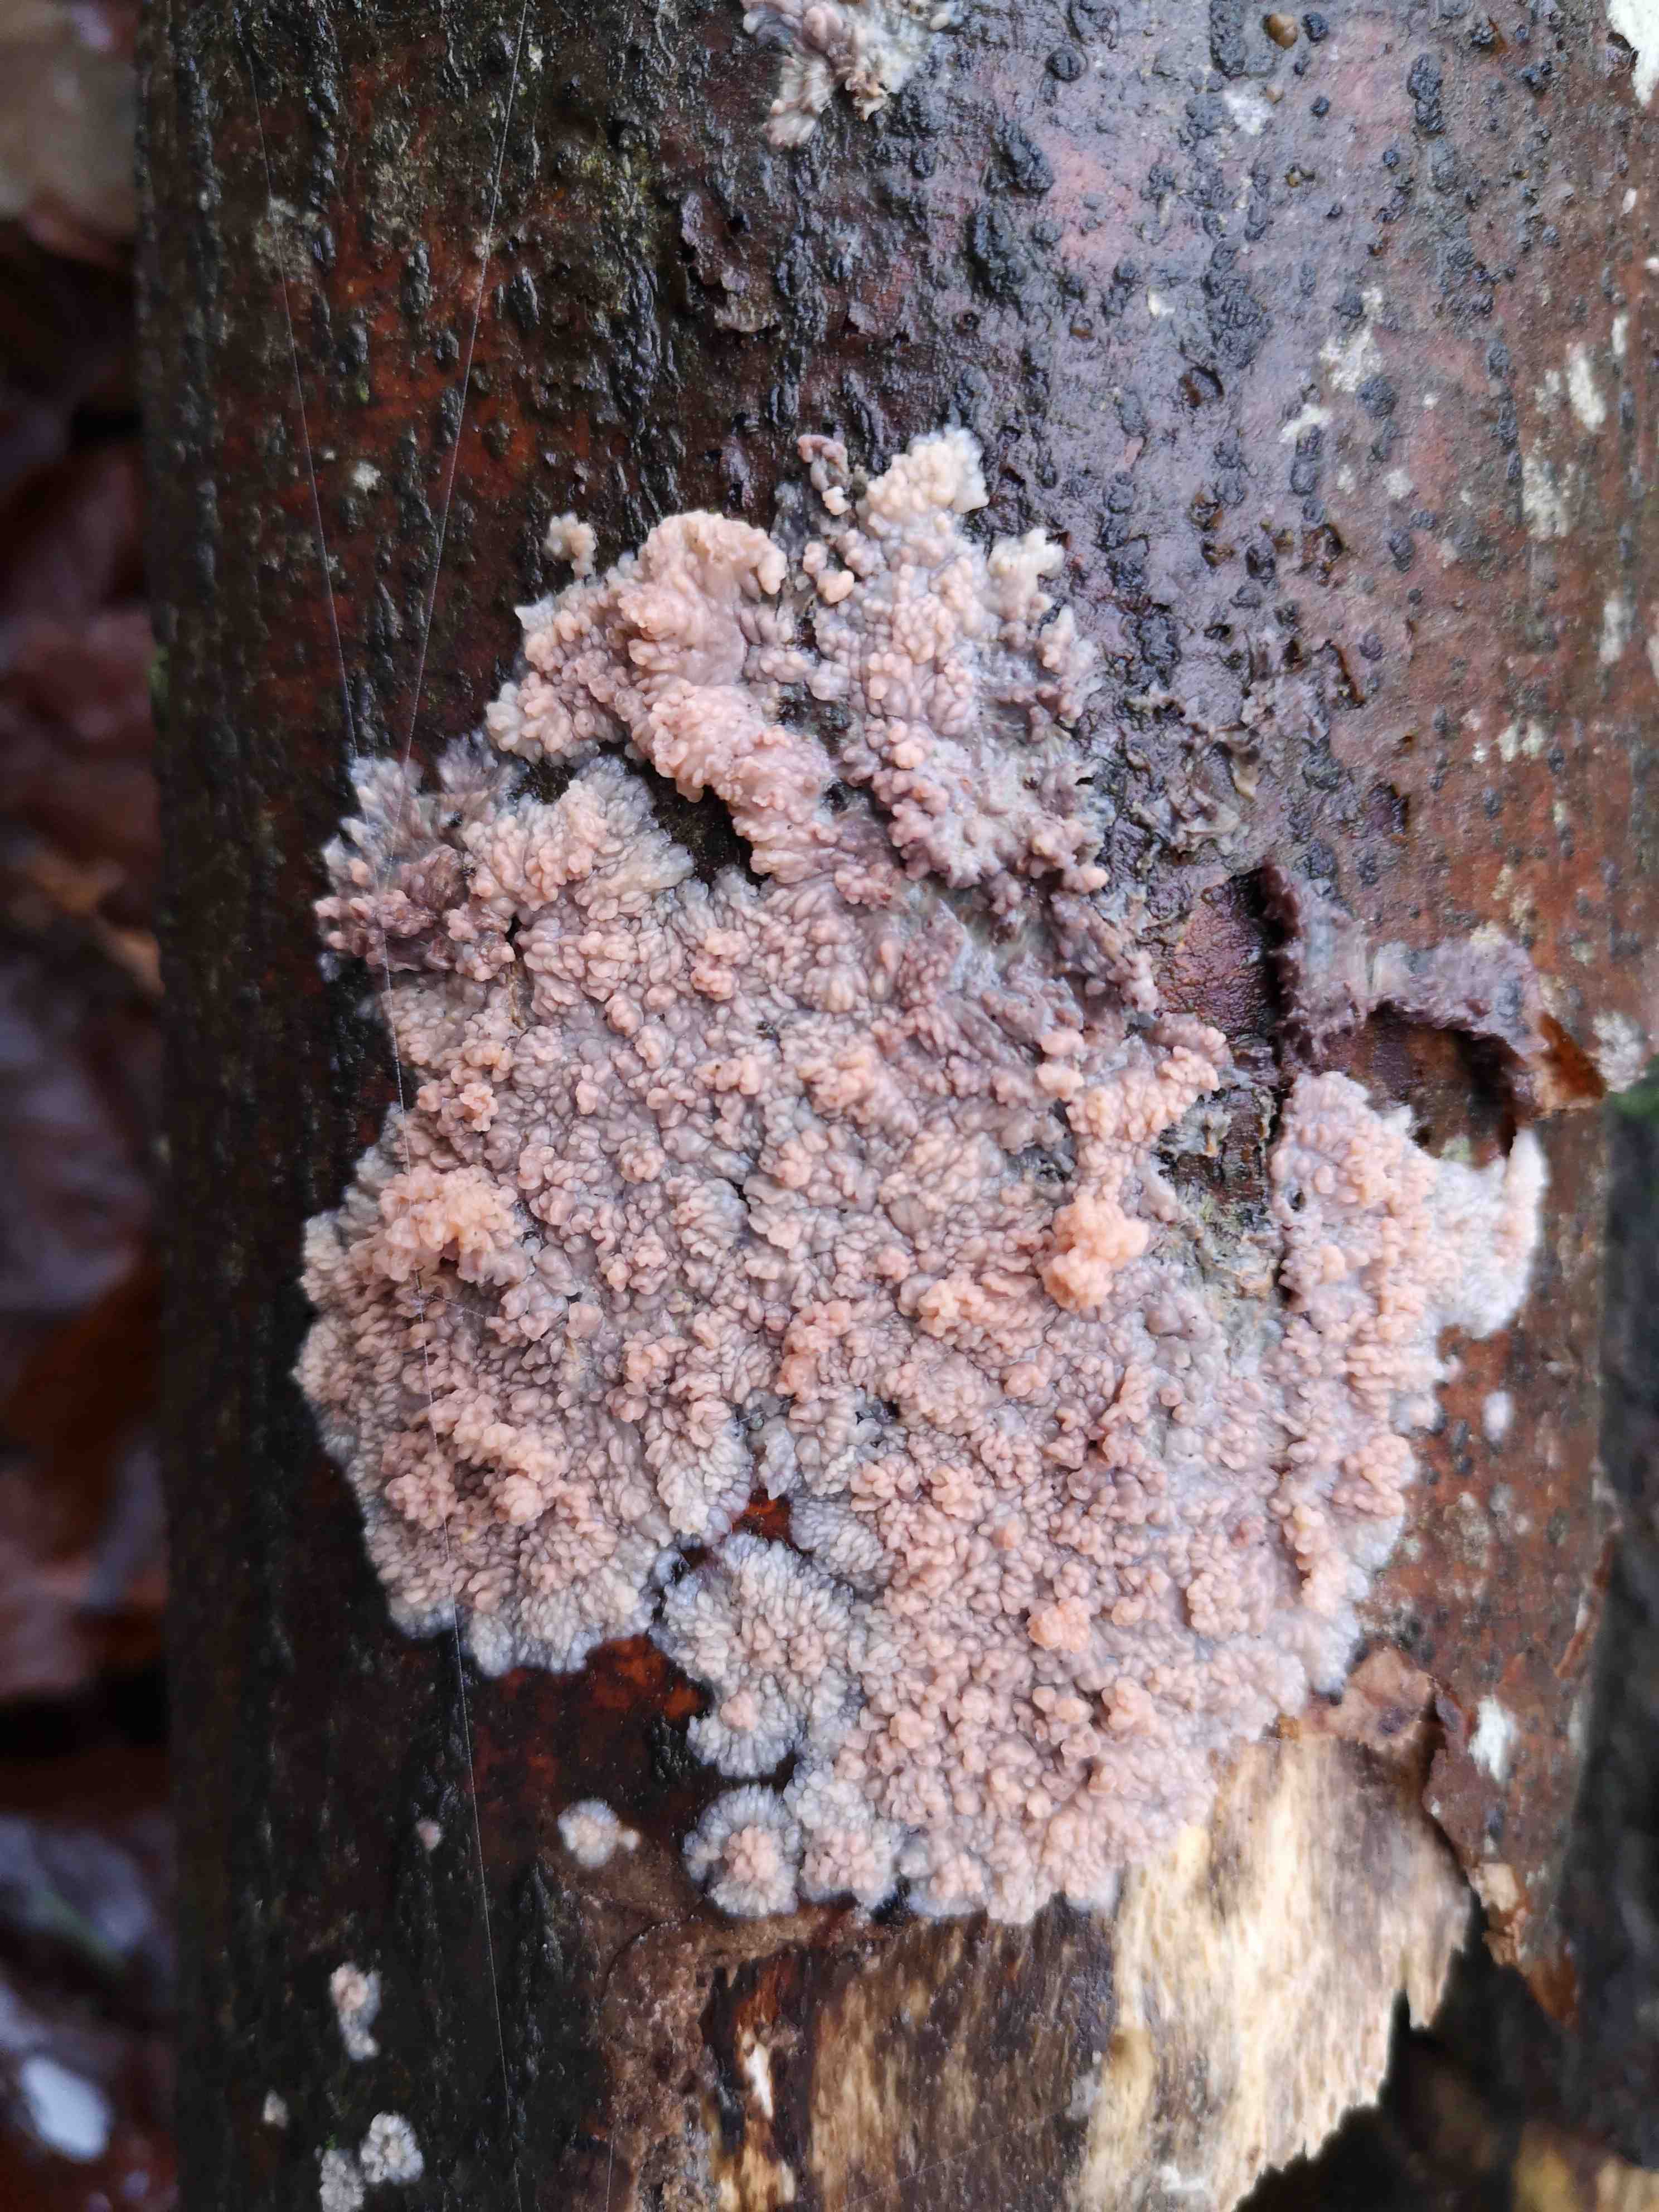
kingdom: Fungi
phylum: Basidiomycota
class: Agaricomycetes
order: Polyporales
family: Meruliaceae
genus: Phlebia
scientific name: Phlebia radiata
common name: stråle-åresvamp
